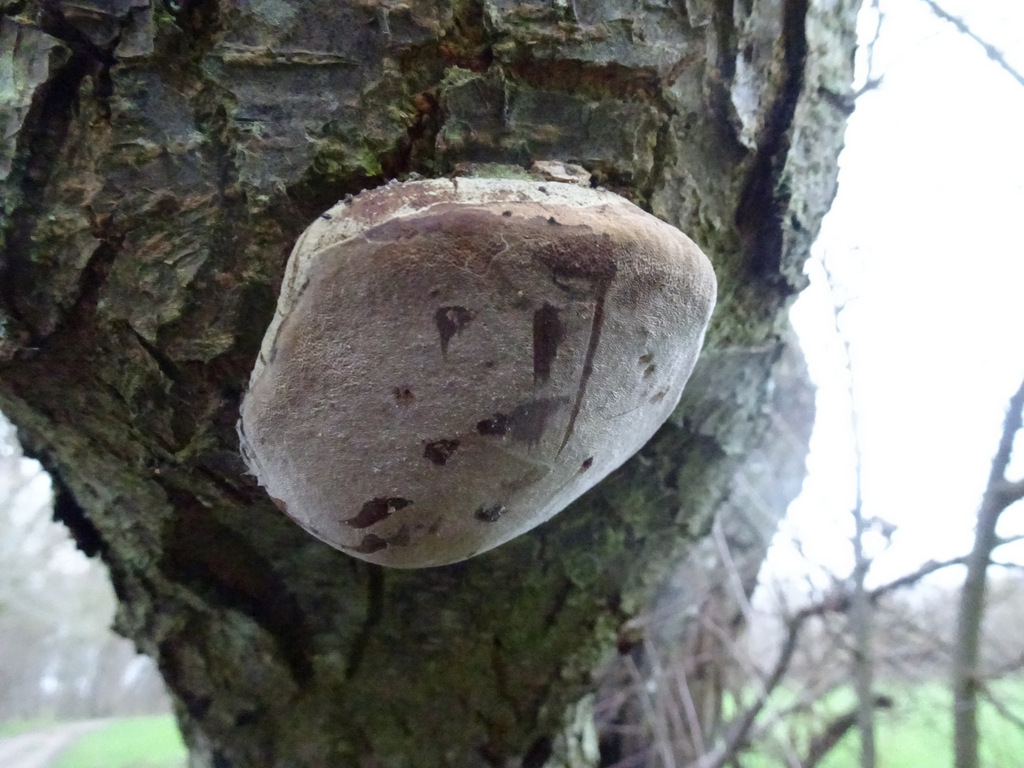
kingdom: Fungi
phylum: Basidiomycota
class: Agaricomycetes
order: Hymenochaetales
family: Hymenochaetaceae
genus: Phellinus
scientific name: Phellinus pomaceus
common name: blomme-ildporesvamp
